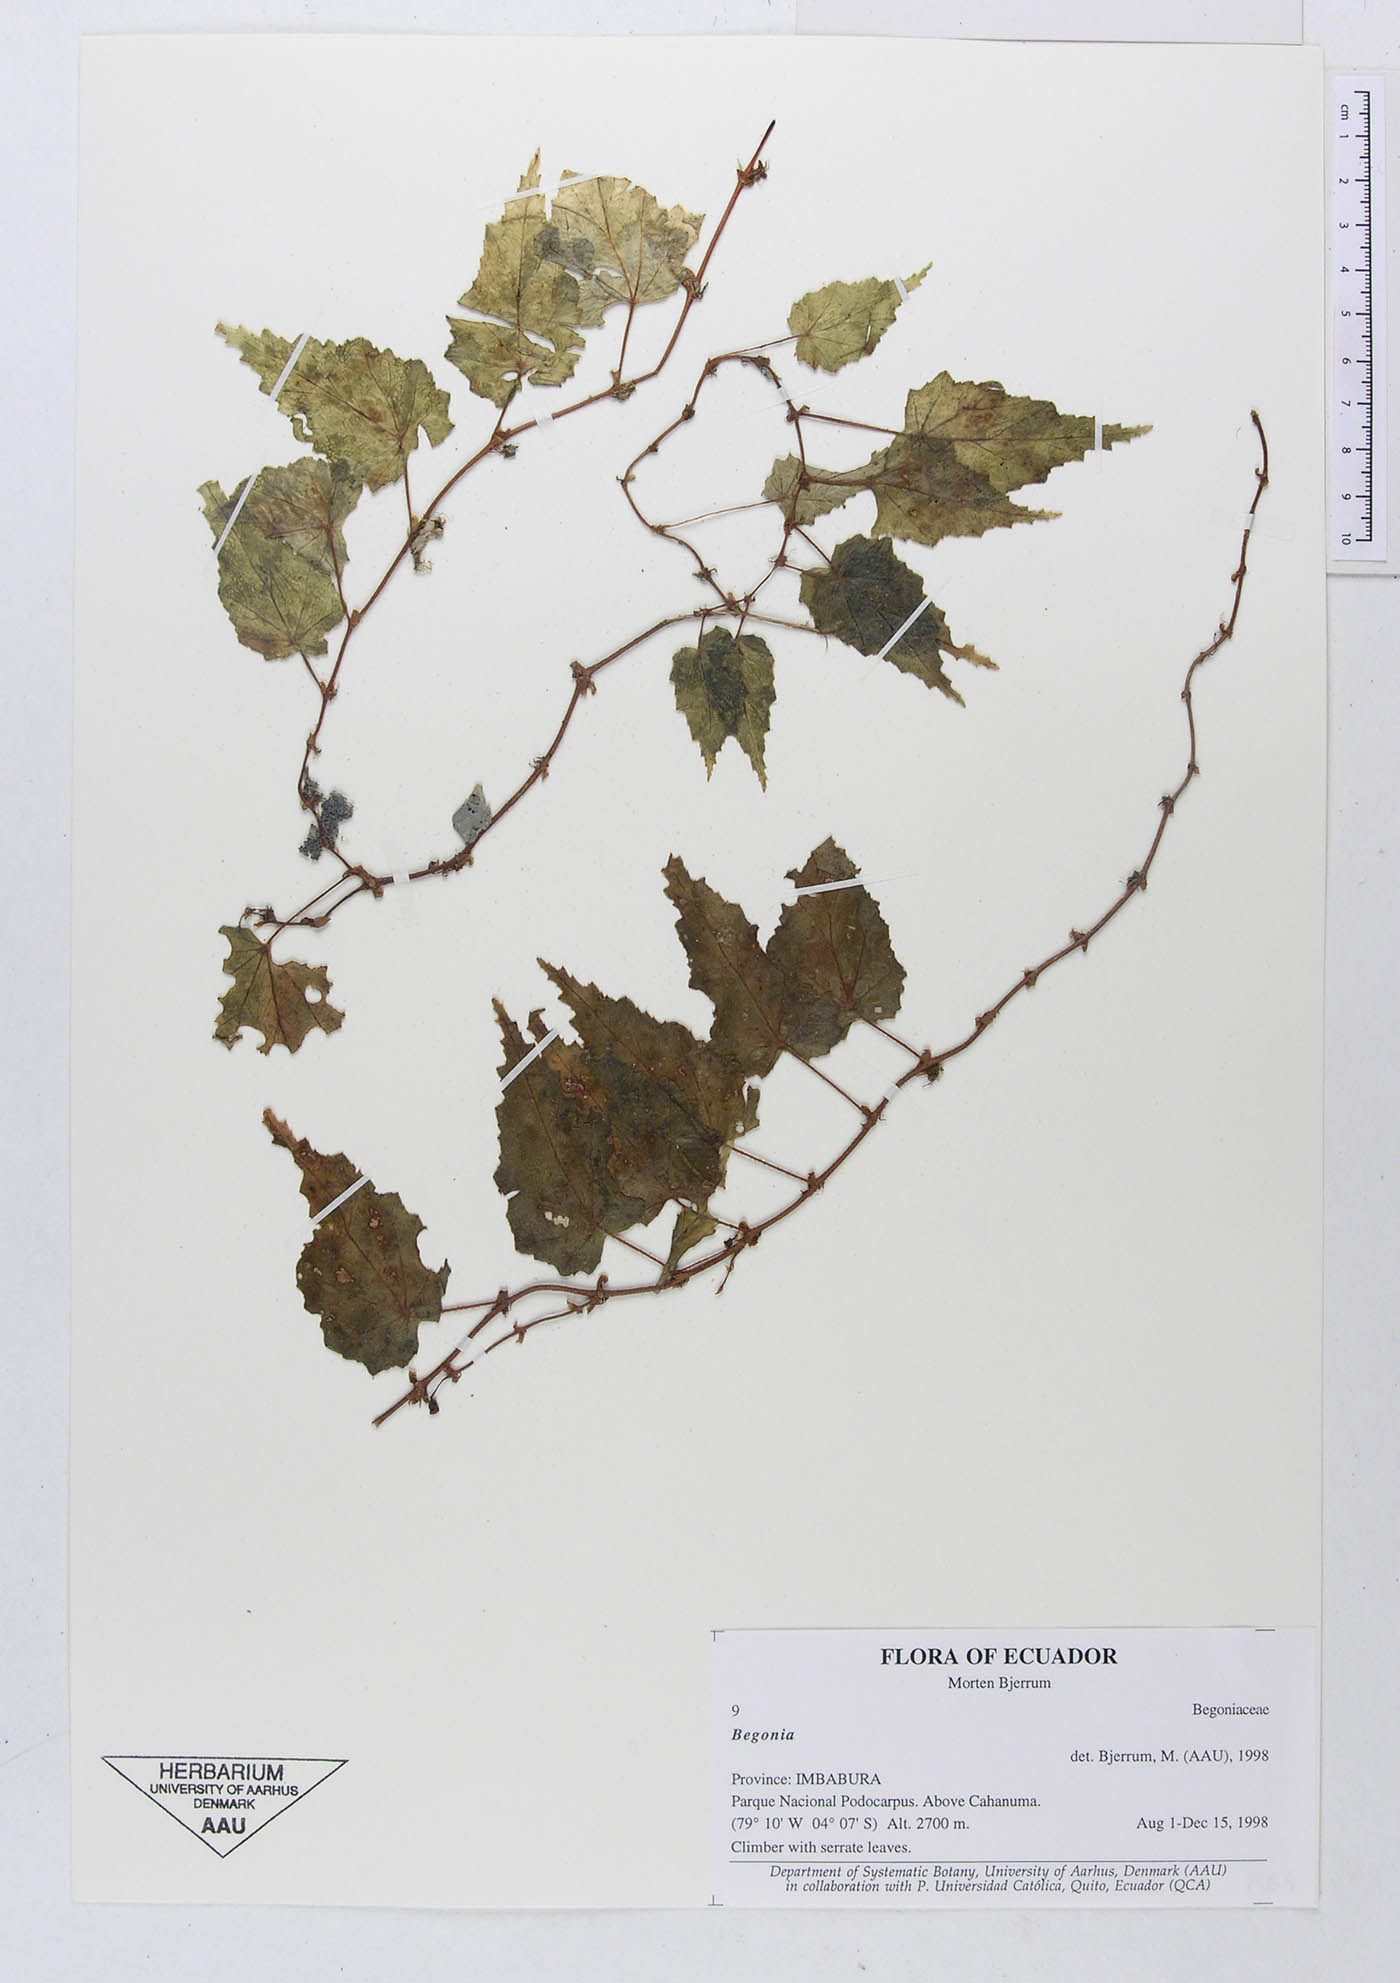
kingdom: Plantae
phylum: Tracheophyta
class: Magnoliopsida
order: Cucurbitales
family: Begoniaceae
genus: Begonia
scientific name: Begonia
